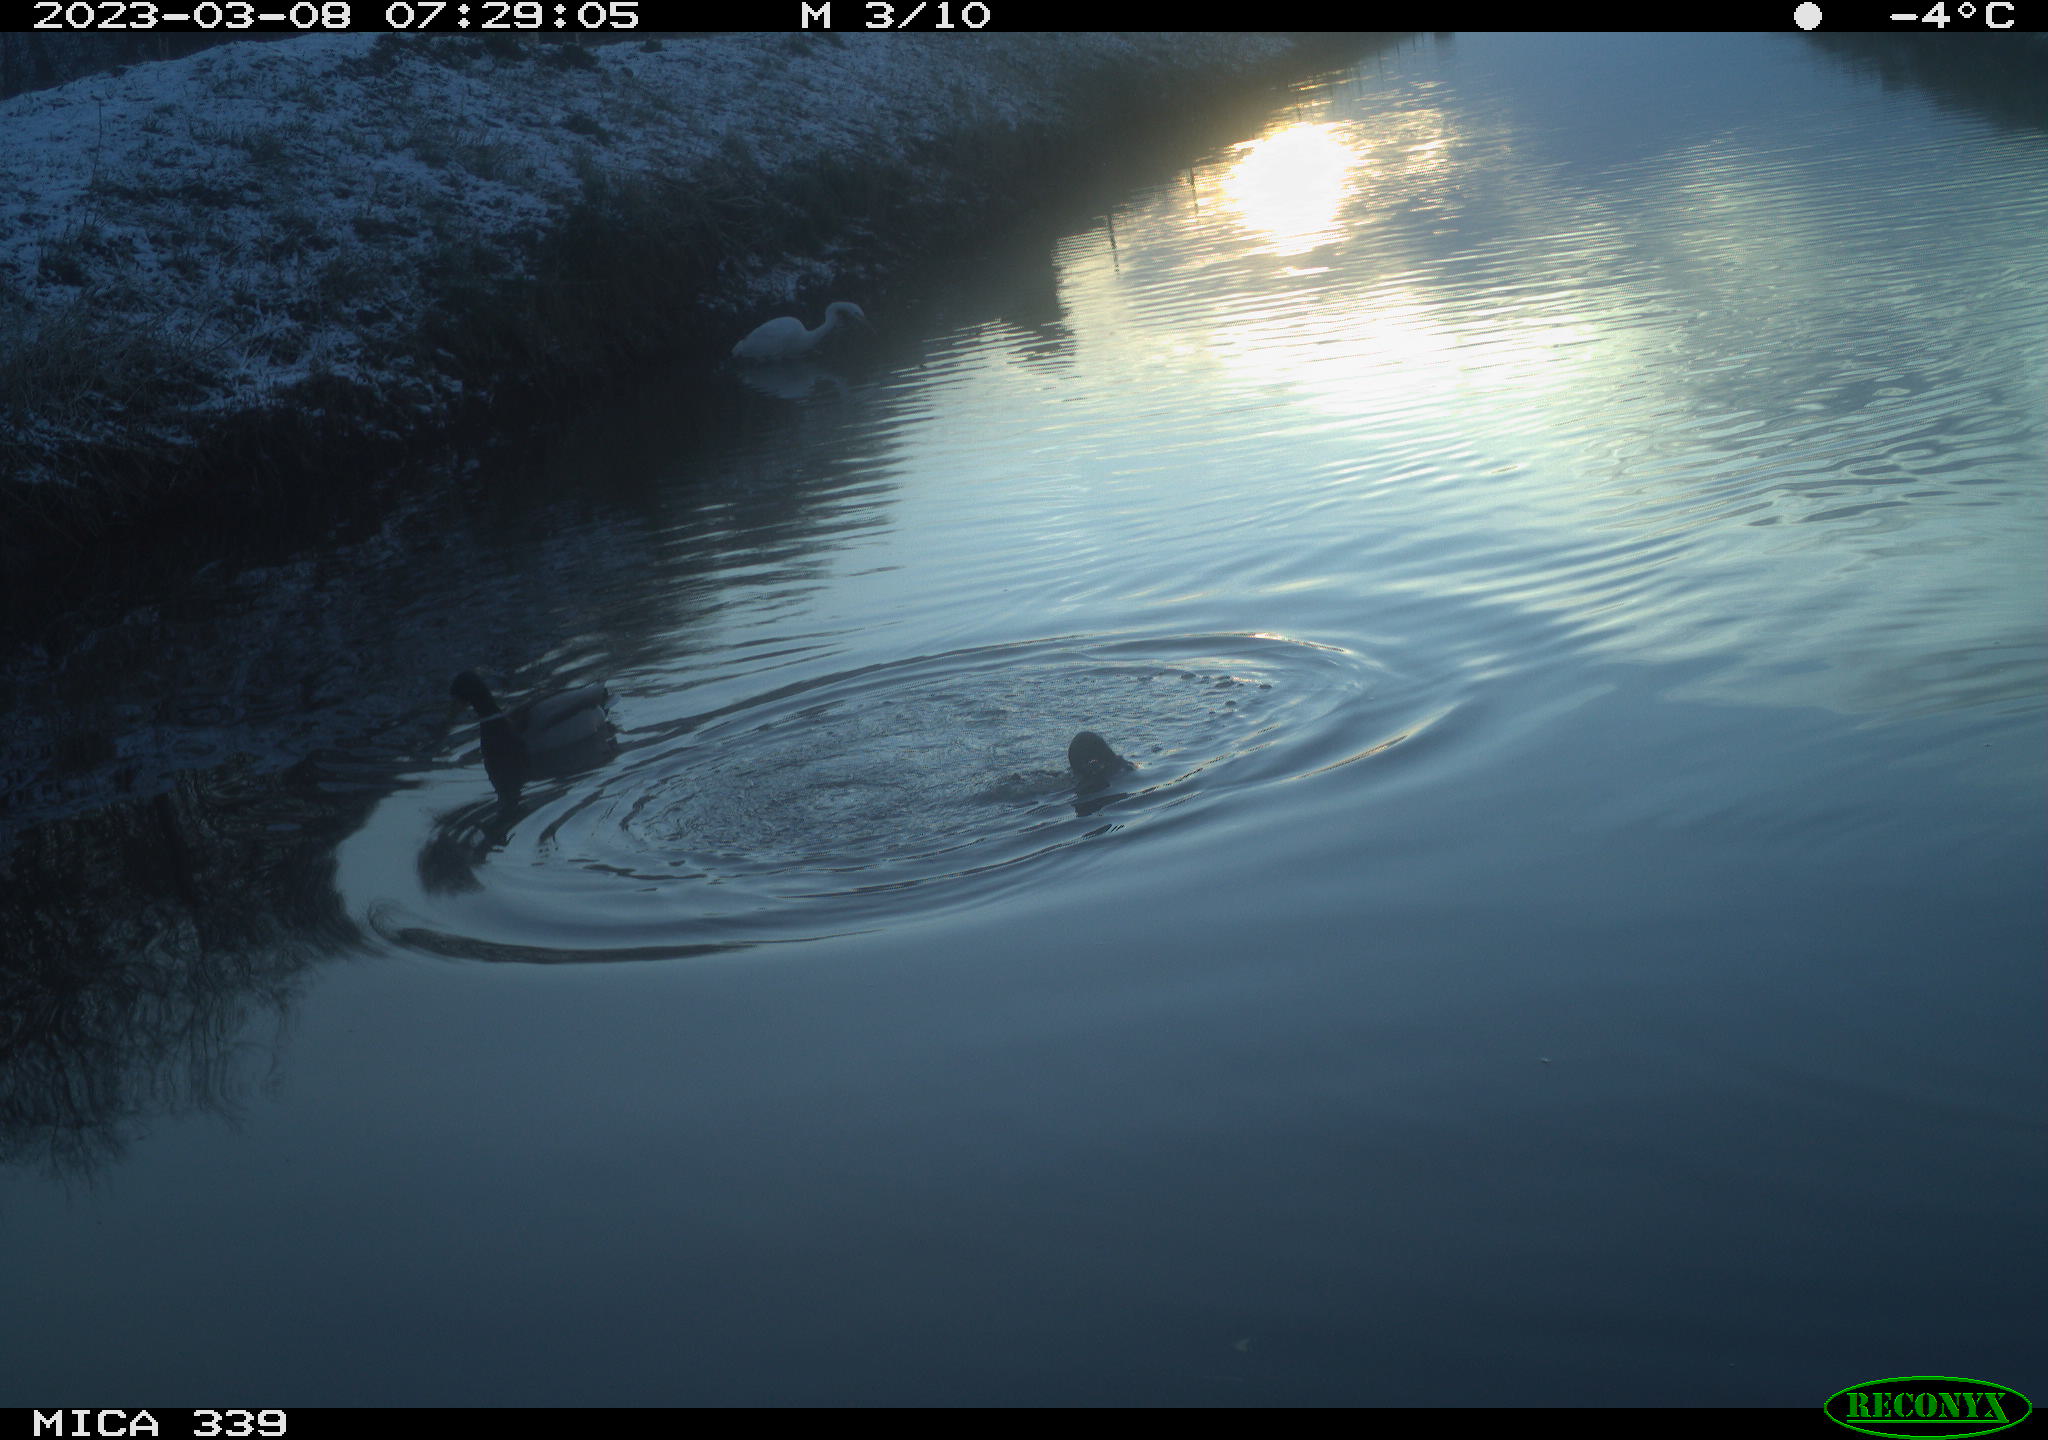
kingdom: Animalia
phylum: Chordata
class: Aves
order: Pelecaniformes
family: Ardeidae
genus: Ardea
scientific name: Ardea alba
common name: Great egret
